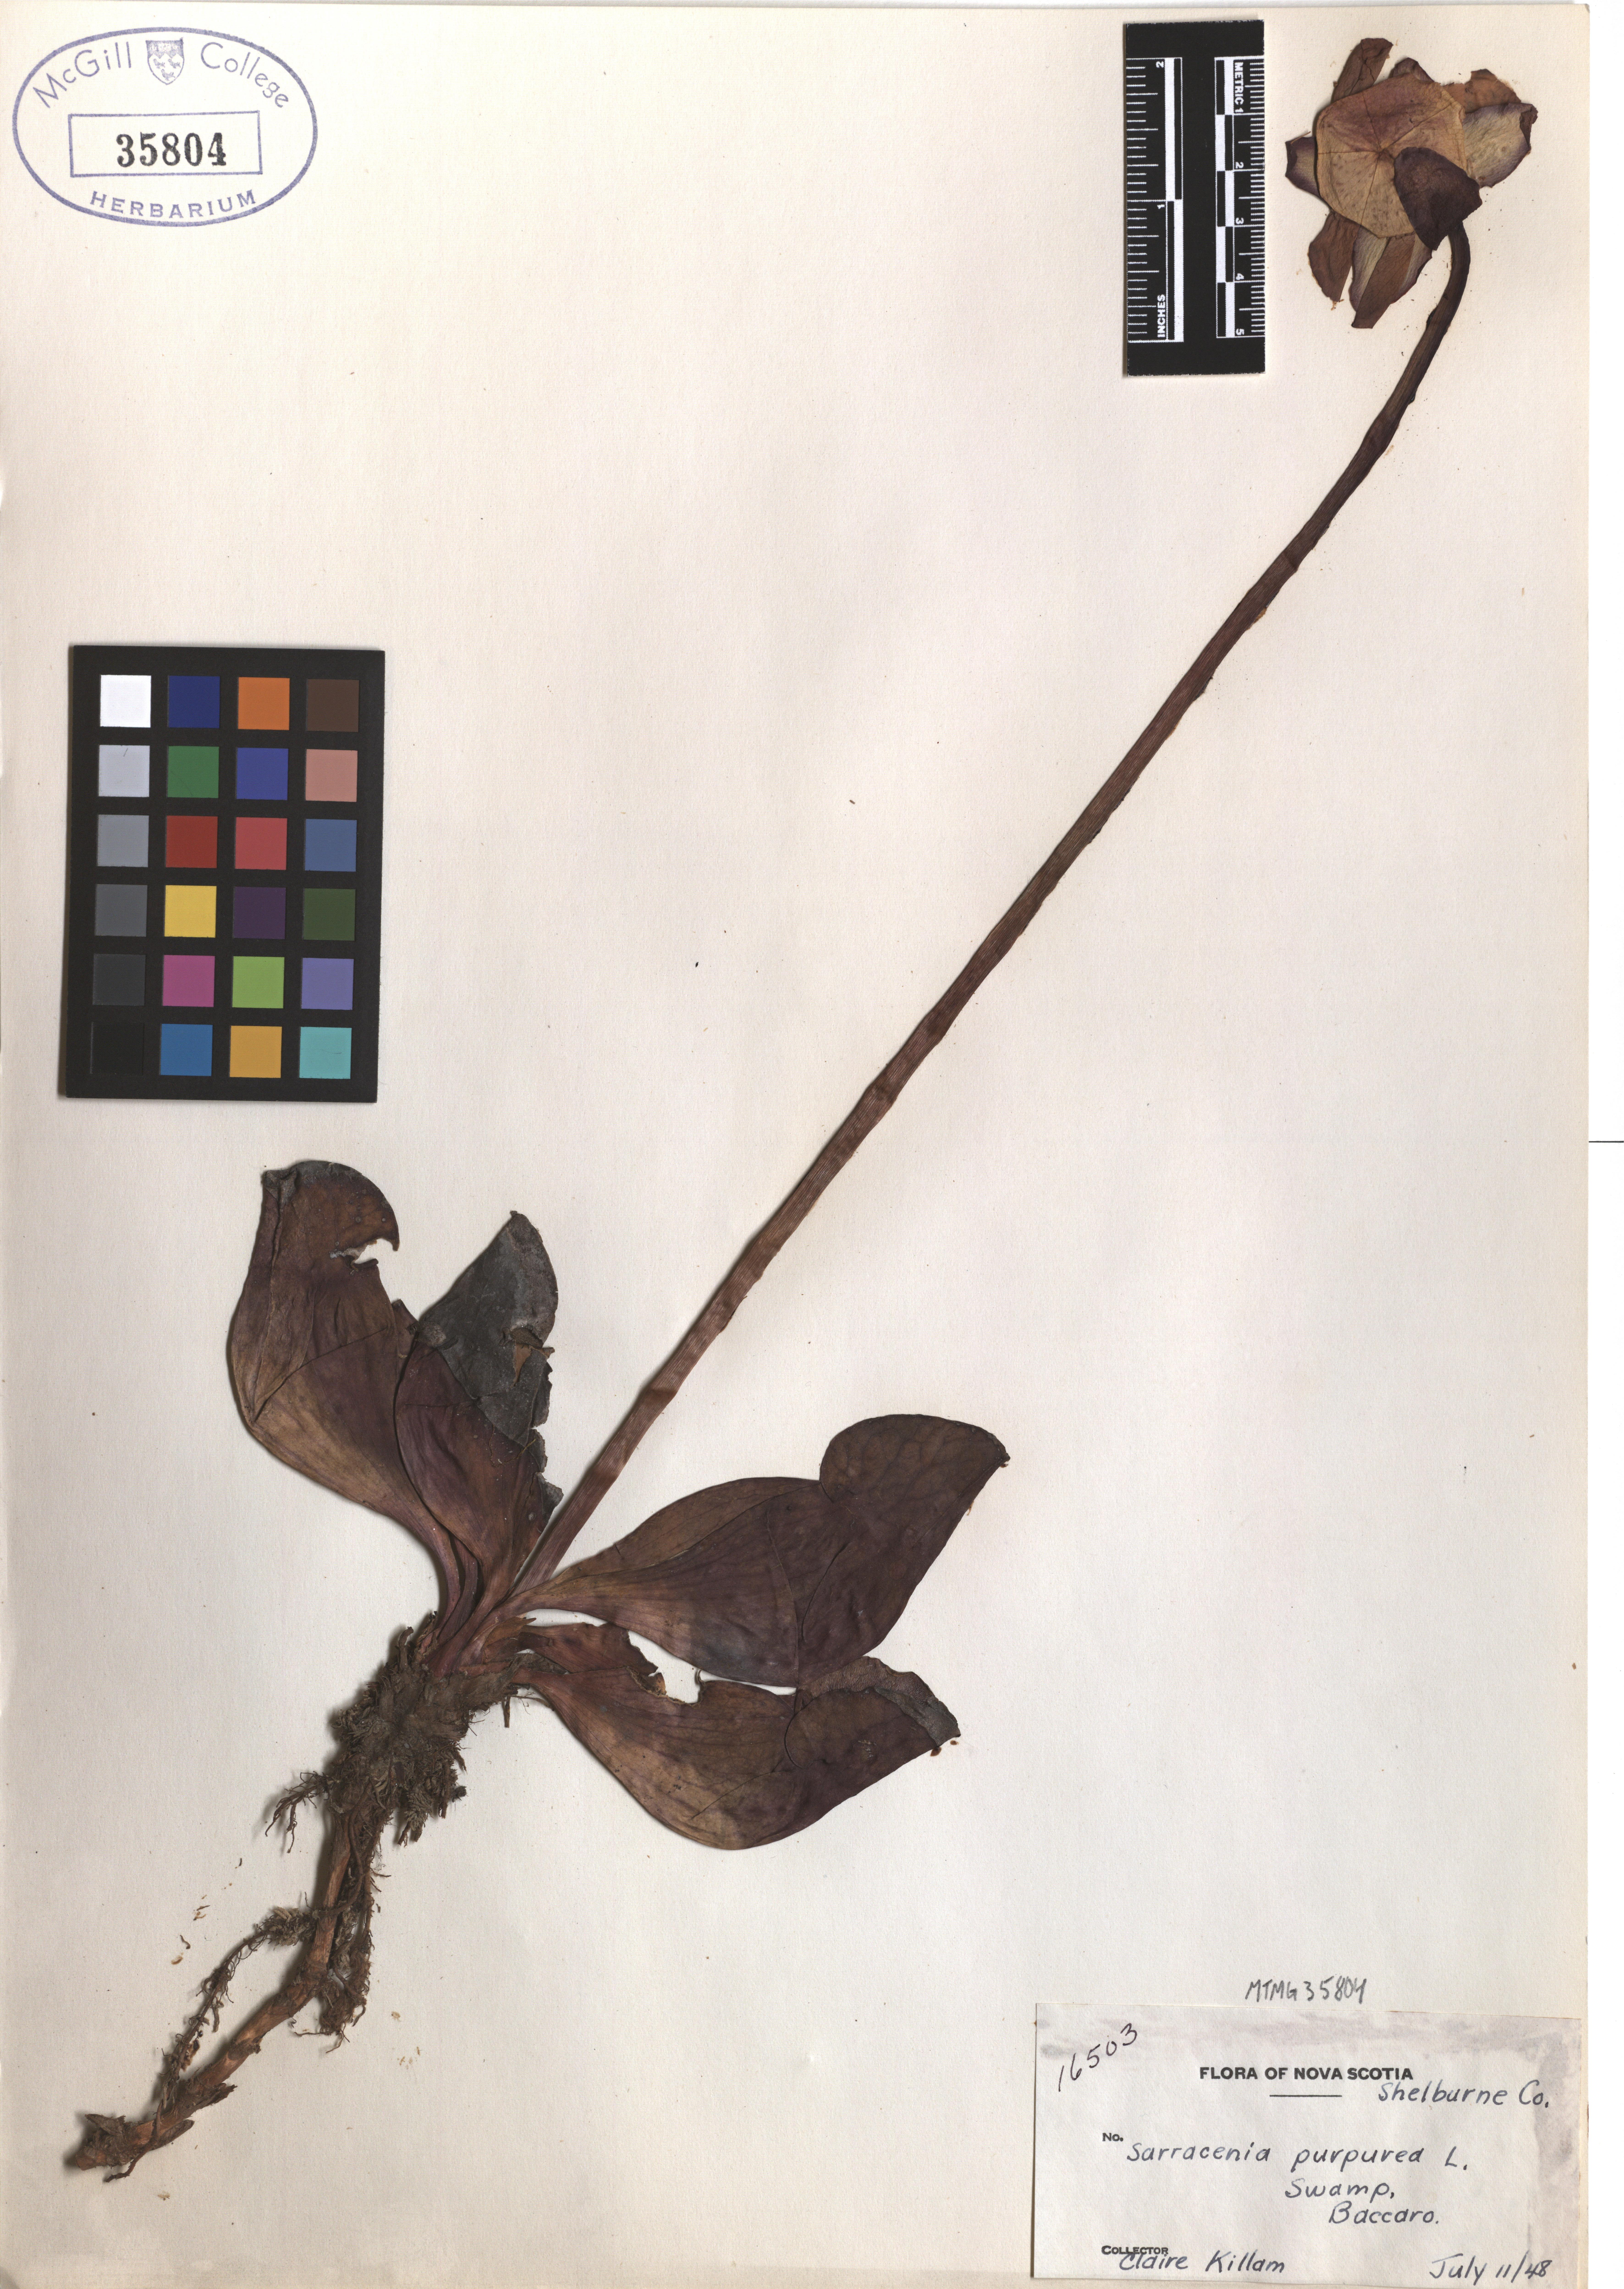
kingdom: Plantae
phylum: Tracheophyta
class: Magnoliopsida
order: Ericales
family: Sarraceniaceae
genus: Sarracenia
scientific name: Sarracenia purpurea
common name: Pitcherplant
